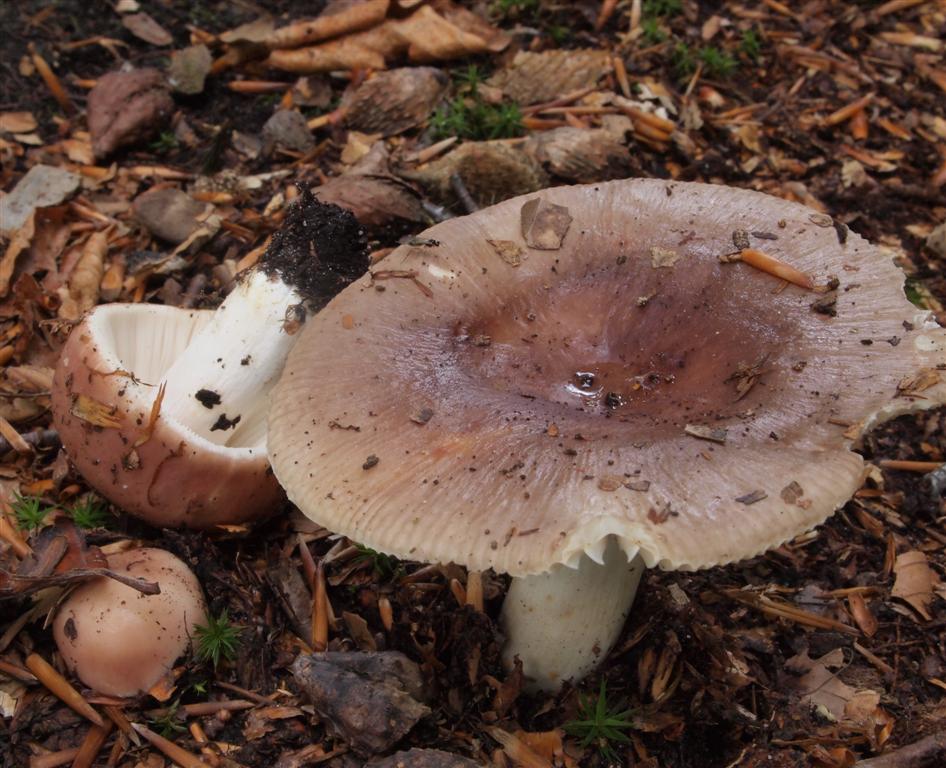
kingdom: Fungi
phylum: Basidiomycota
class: Agaricomycetes
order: Russulales
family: Russulaceae
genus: Russula
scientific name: Russula vesca
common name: spiselig skørhat
